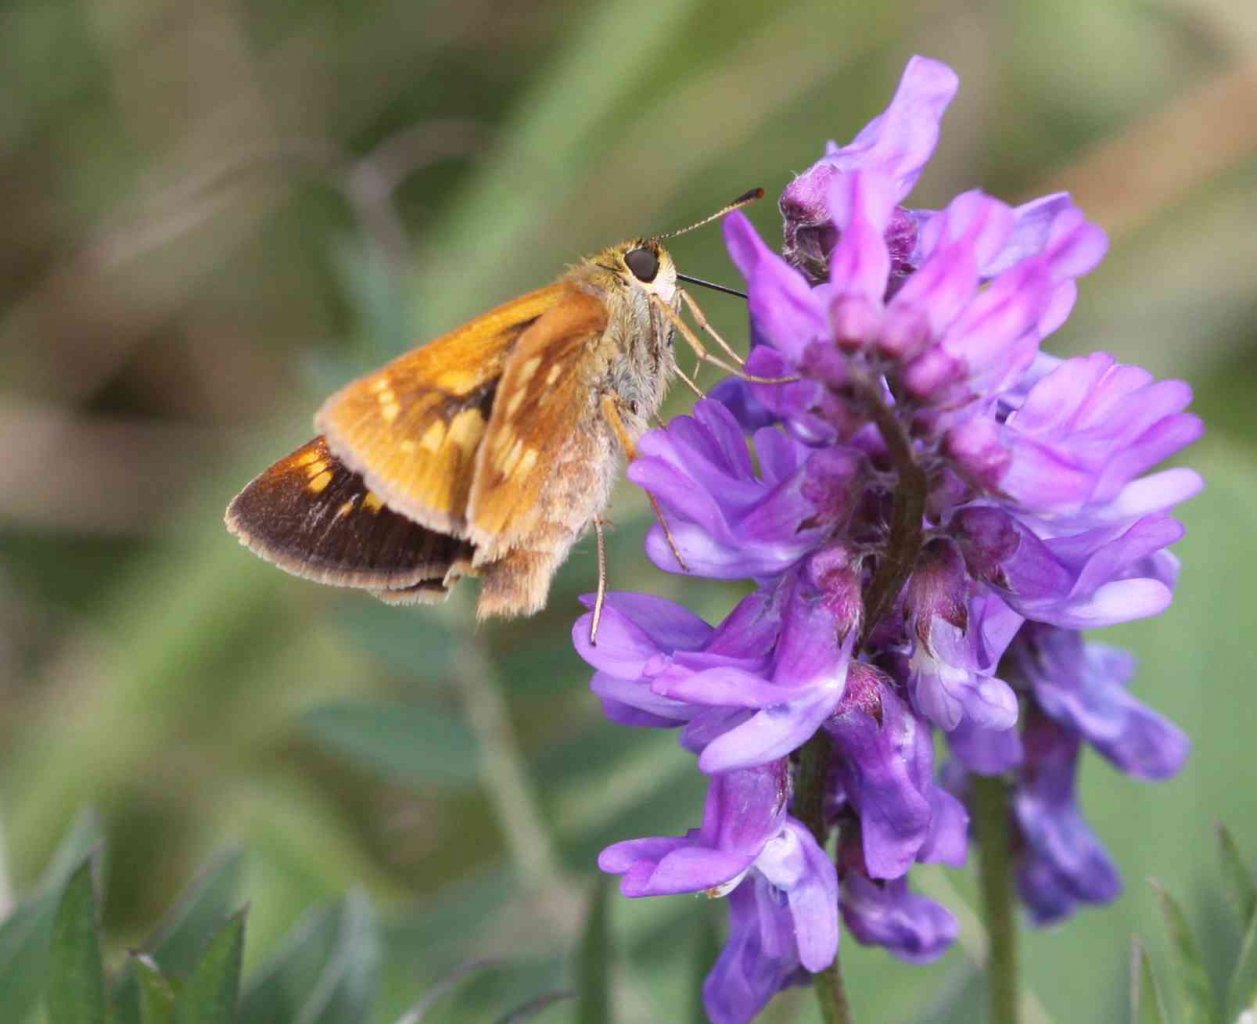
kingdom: Animalia
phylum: Arthropoda
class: Insecta
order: Lepidoptera
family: Hesperiidae
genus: Polites
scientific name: Polites
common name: Long Dash Skipper
